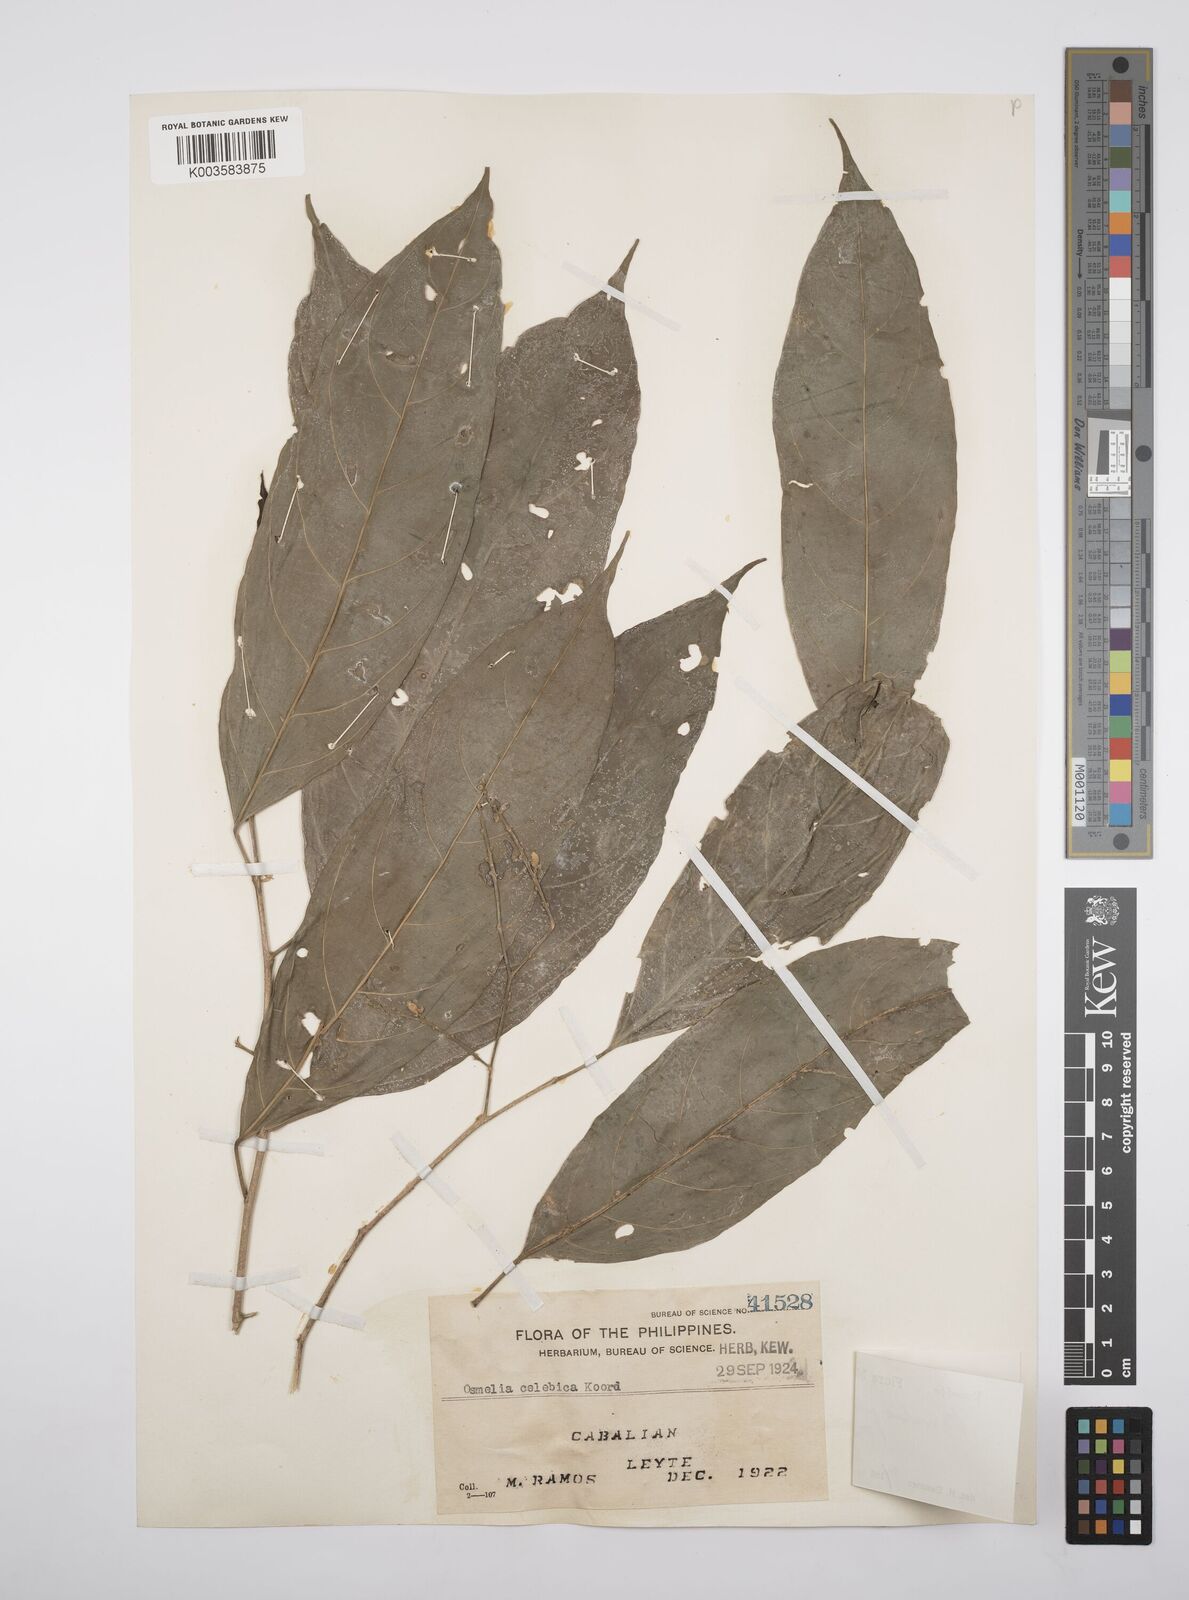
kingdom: Plantae
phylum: Tracheophyta
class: Magnoliopsida
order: Malpighiales
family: Salicaceae
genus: Osmelia
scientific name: Osmelia philippina
